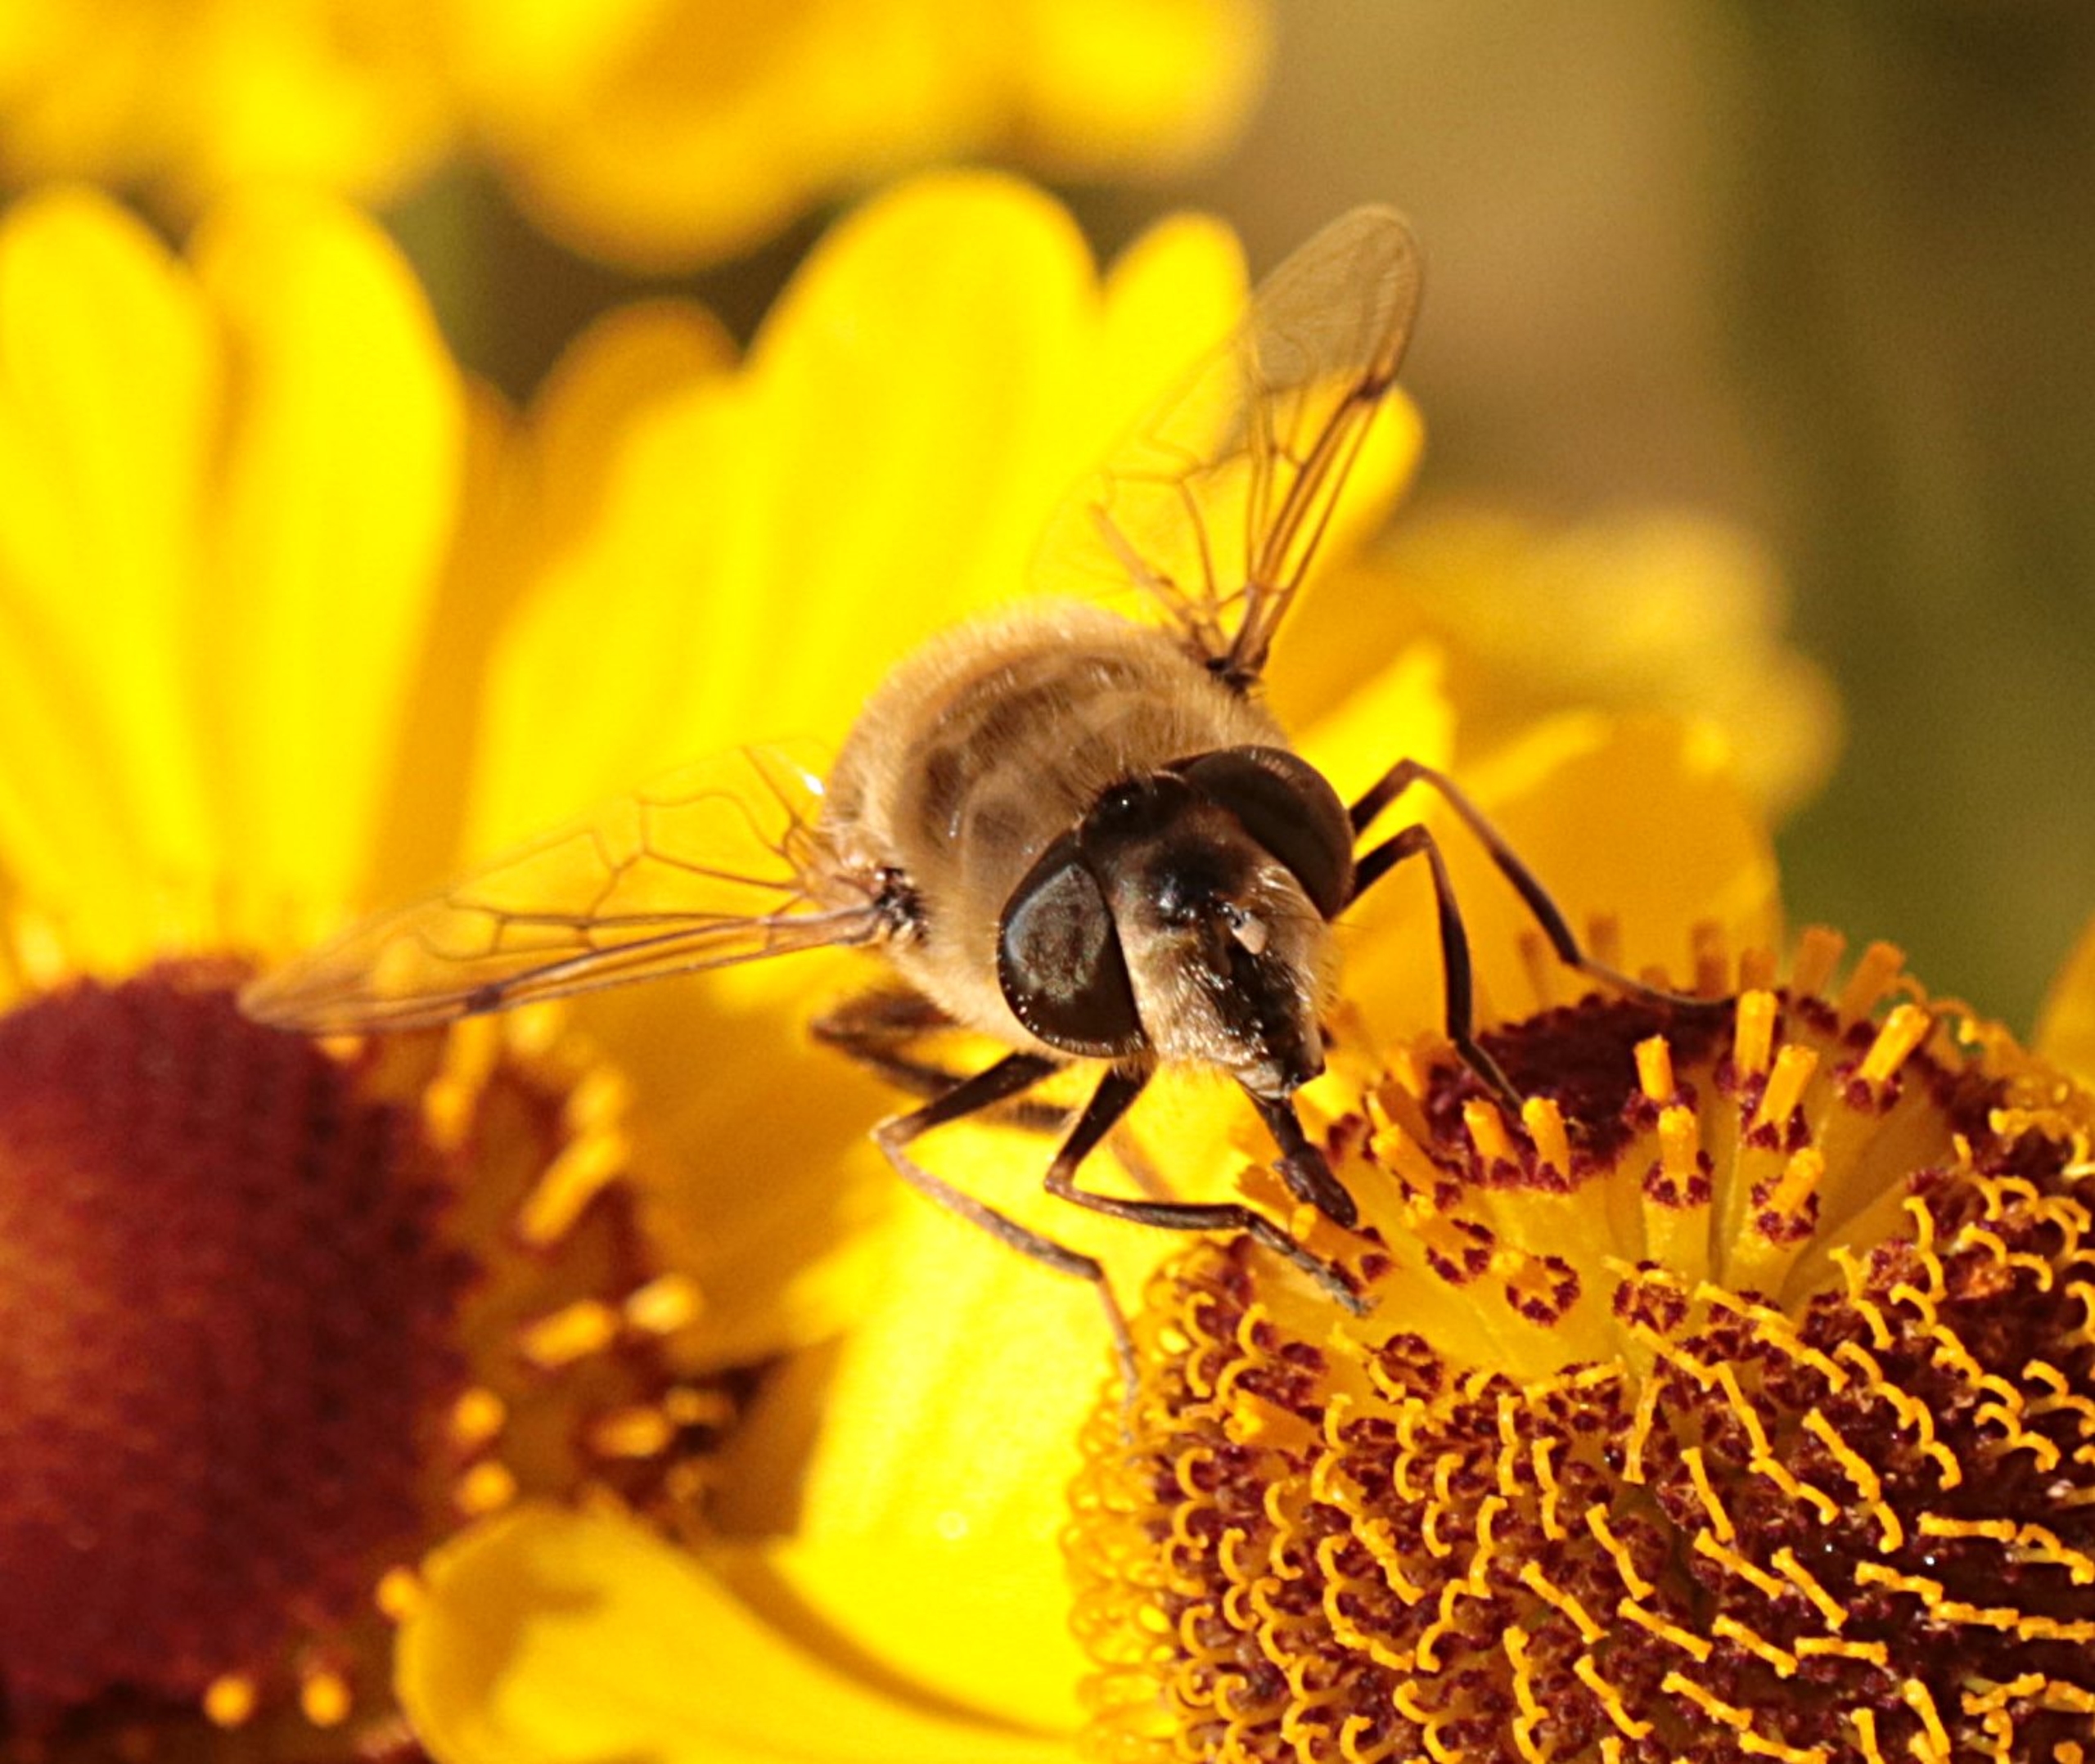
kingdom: Animalia
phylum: Arthropoda
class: Insecta
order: Diptera
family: Syrphidae
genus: Eristalis
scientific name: Eristalis tenax
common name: Droneflue
